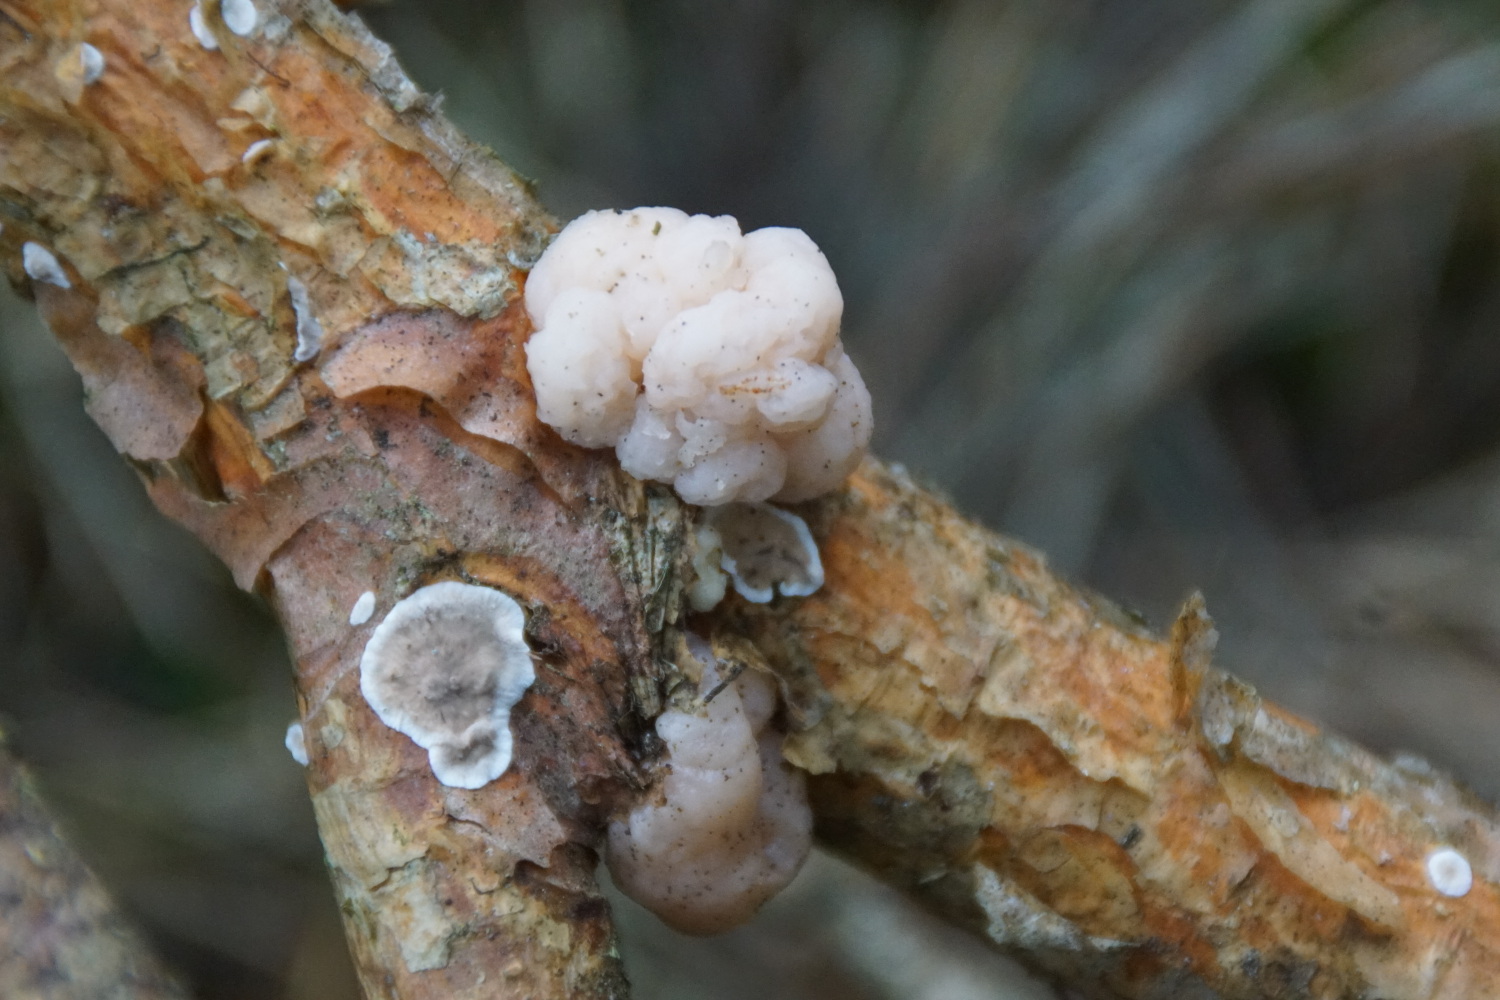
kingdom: Fungi
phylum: Basidiomycota
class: Tremellomycetes
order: Tremellales
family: Naemateliaceae
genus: Naematelia
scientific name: Naematelia encephala
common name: fyrre-bævresvamp
